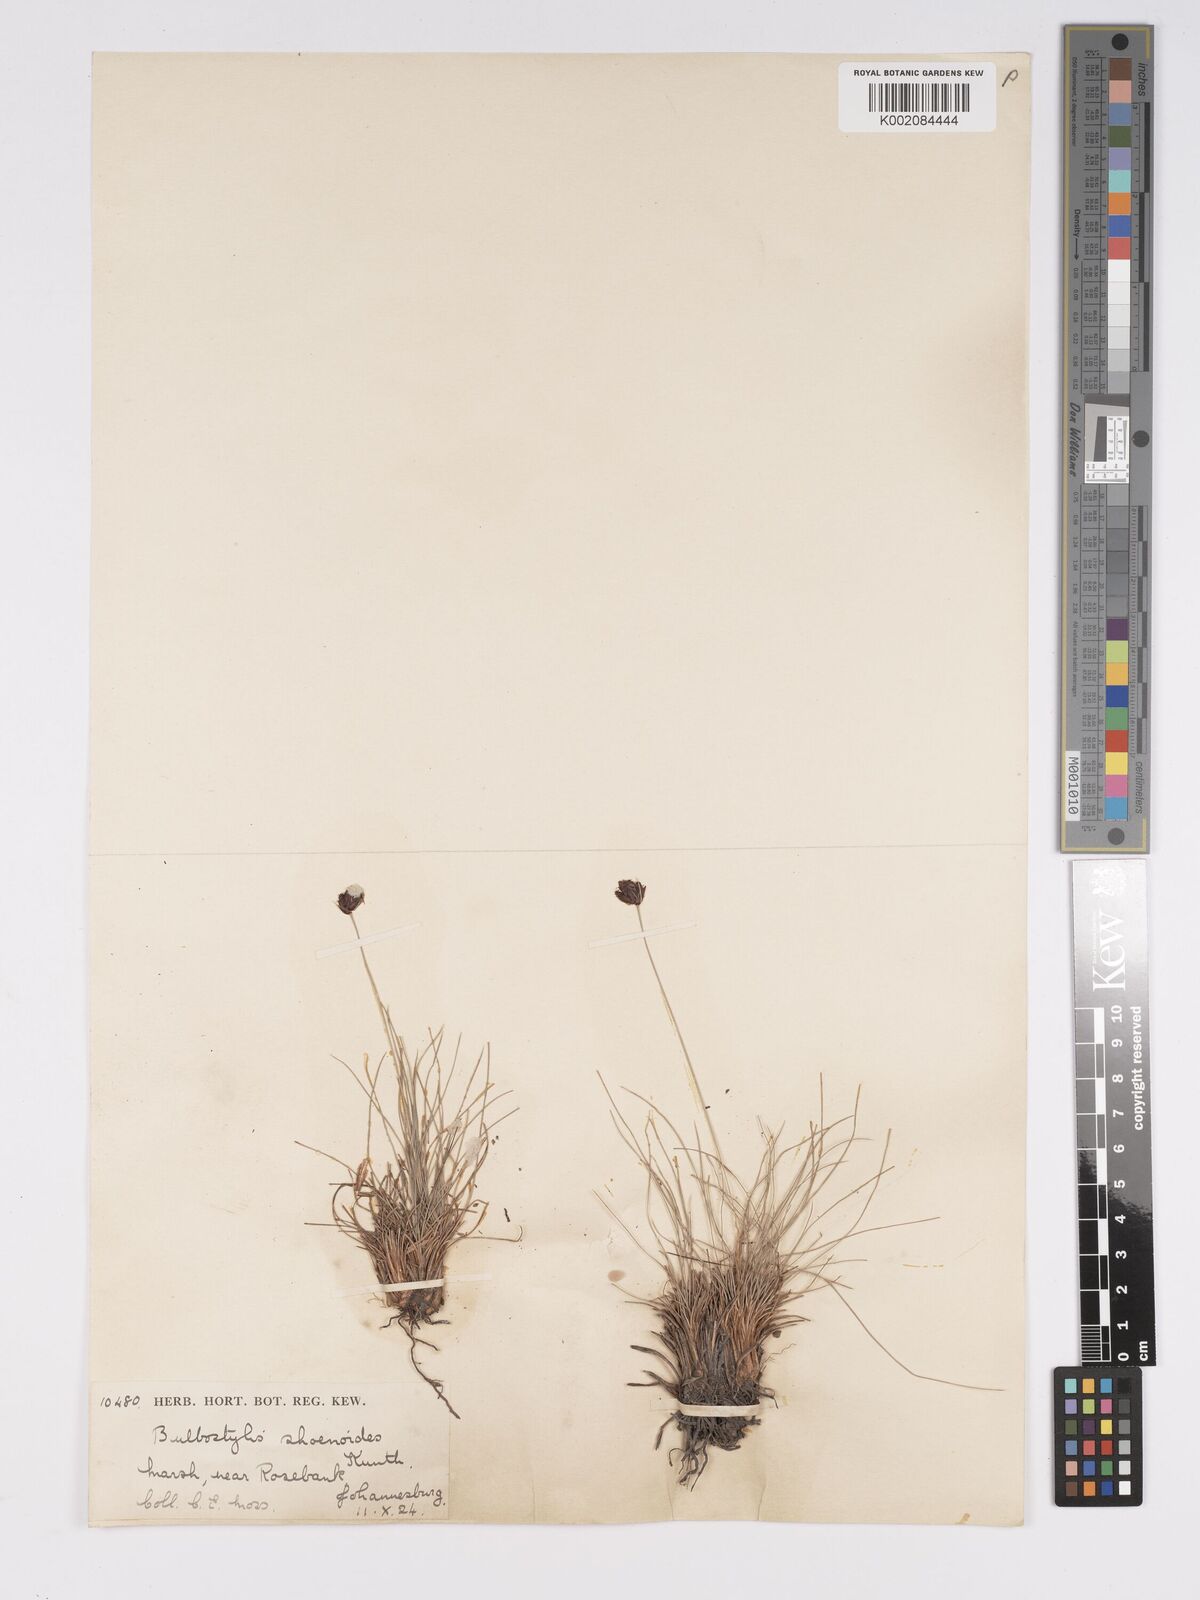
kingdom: Plantae
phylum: Tracheophyta
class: Liliopsida
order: Poales
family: Cyperaceae
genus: Bulbostylis
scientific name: Bulbostylis schoenoides
